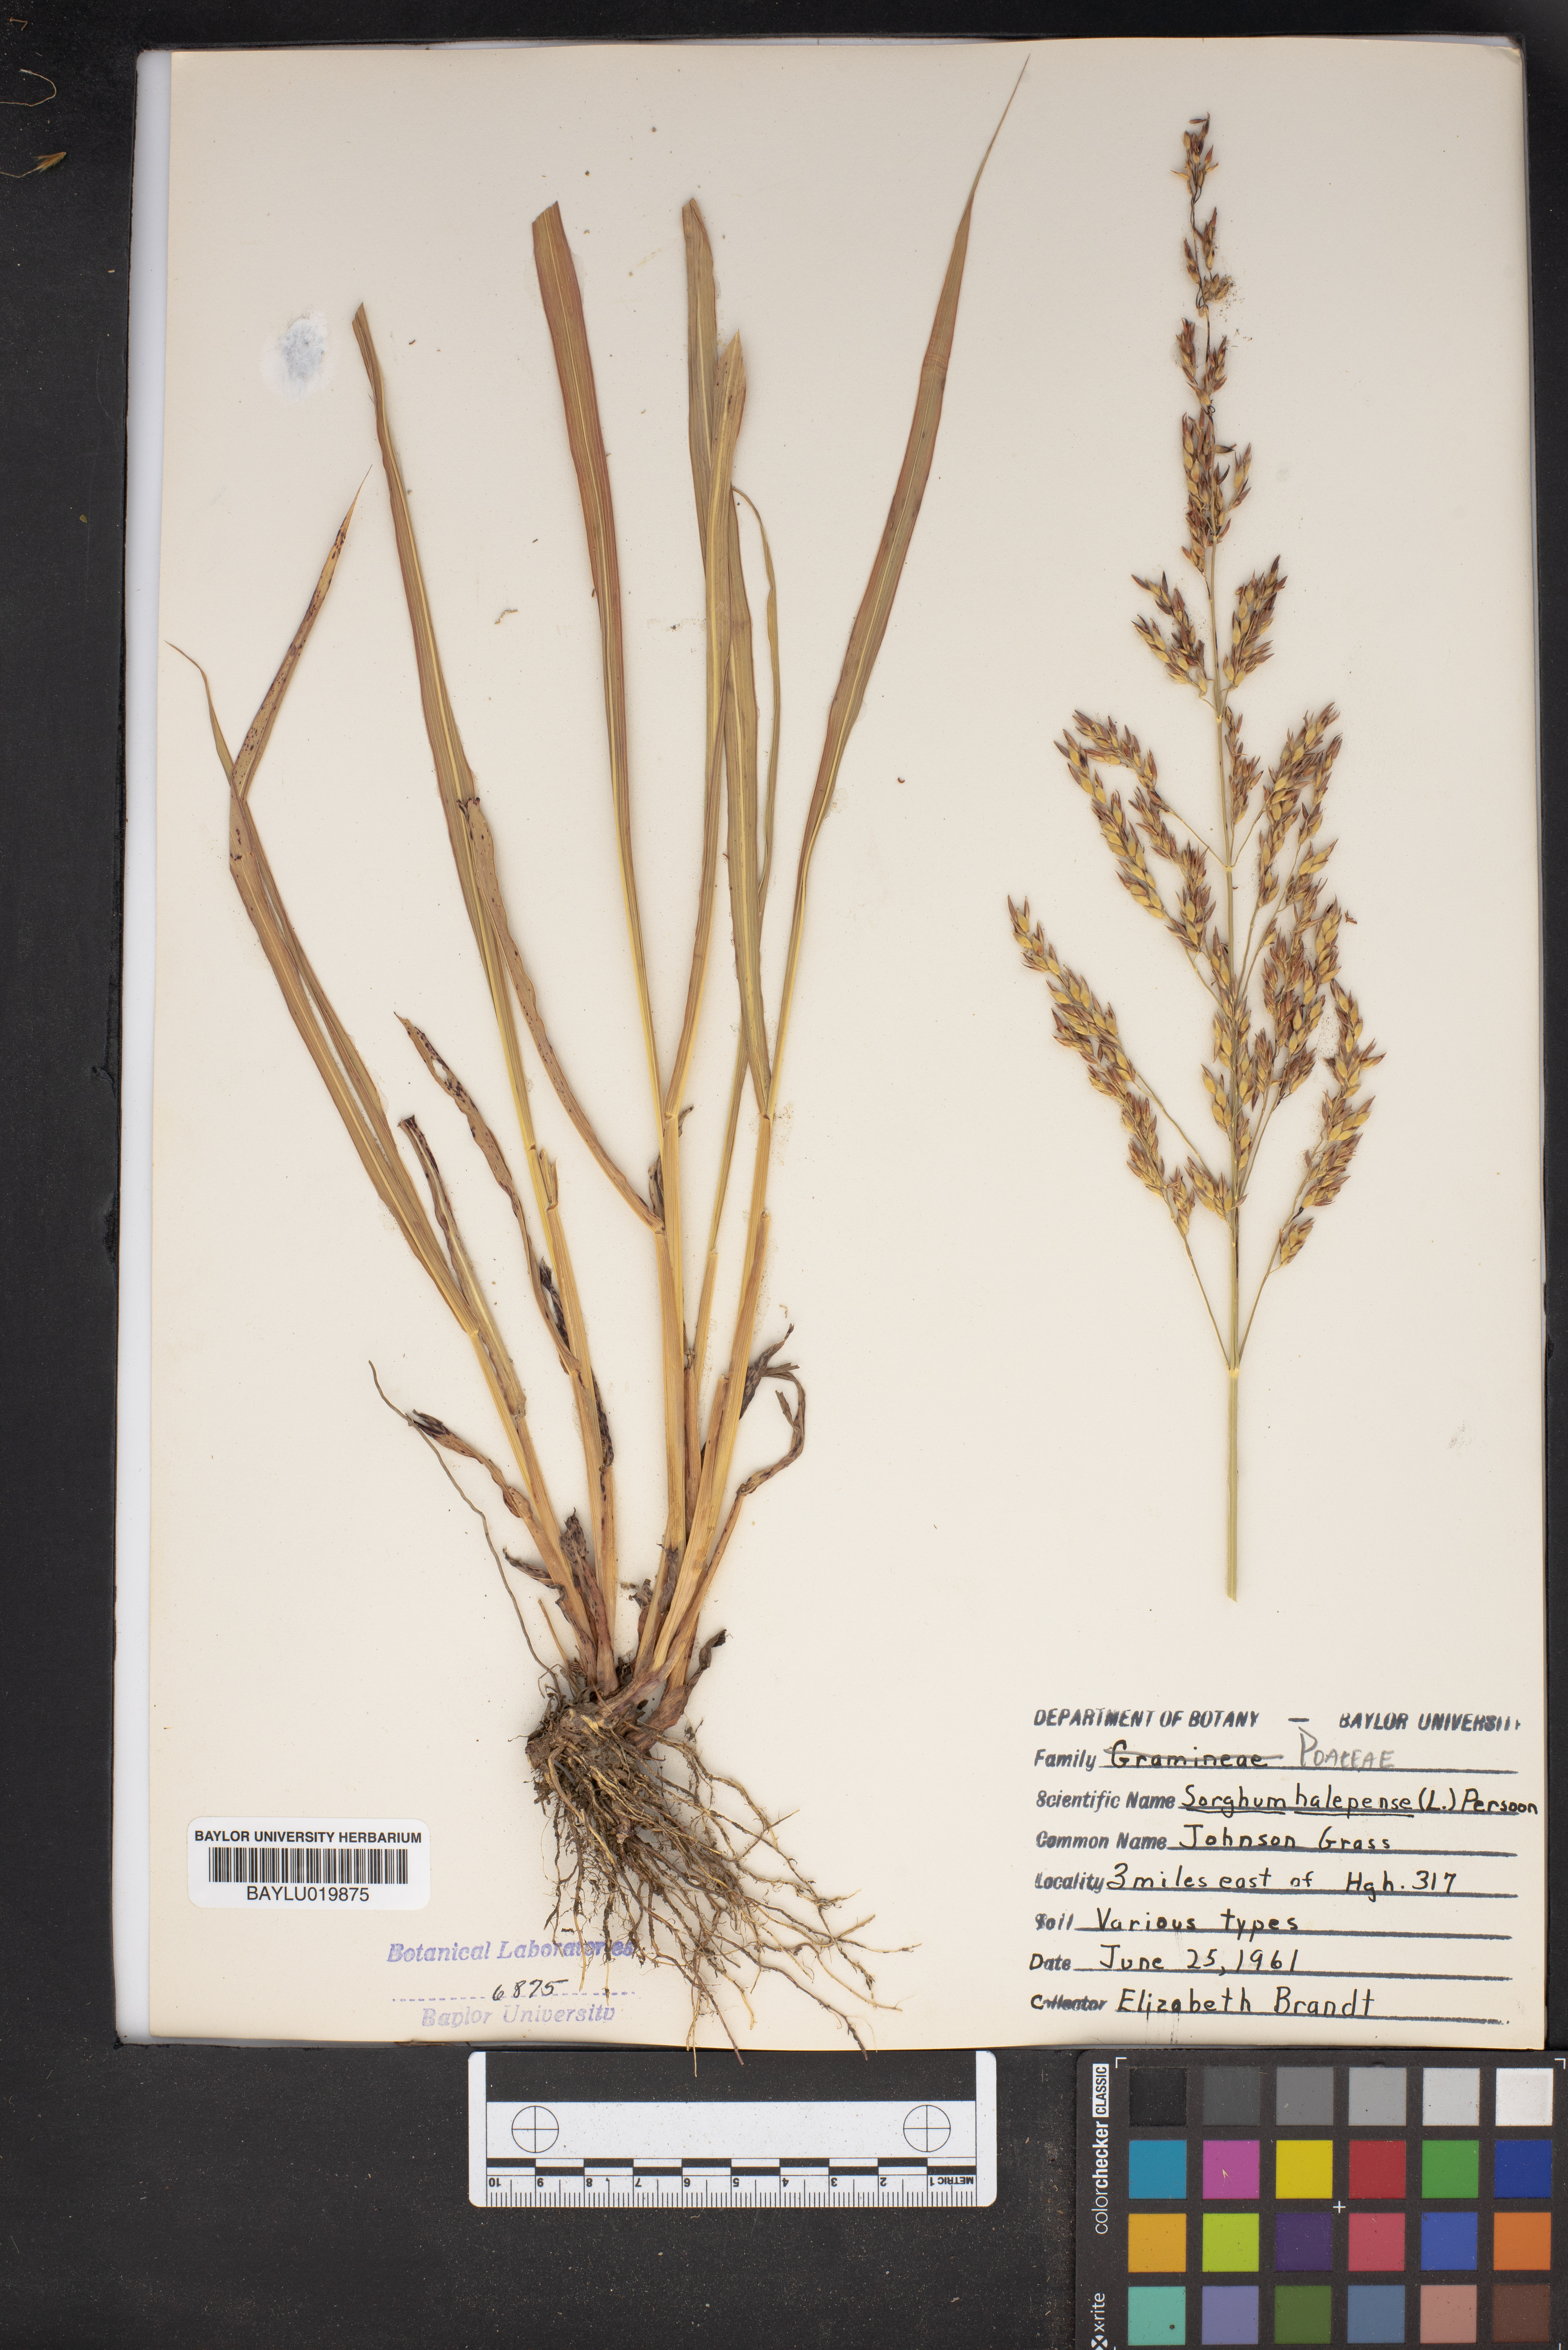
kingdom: Plantae
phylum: Tracheophyta
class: Liliopsida
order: Poales
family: Poaceae
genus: Sorghum
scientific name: Sorghum halepense
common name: Johnson-grass
